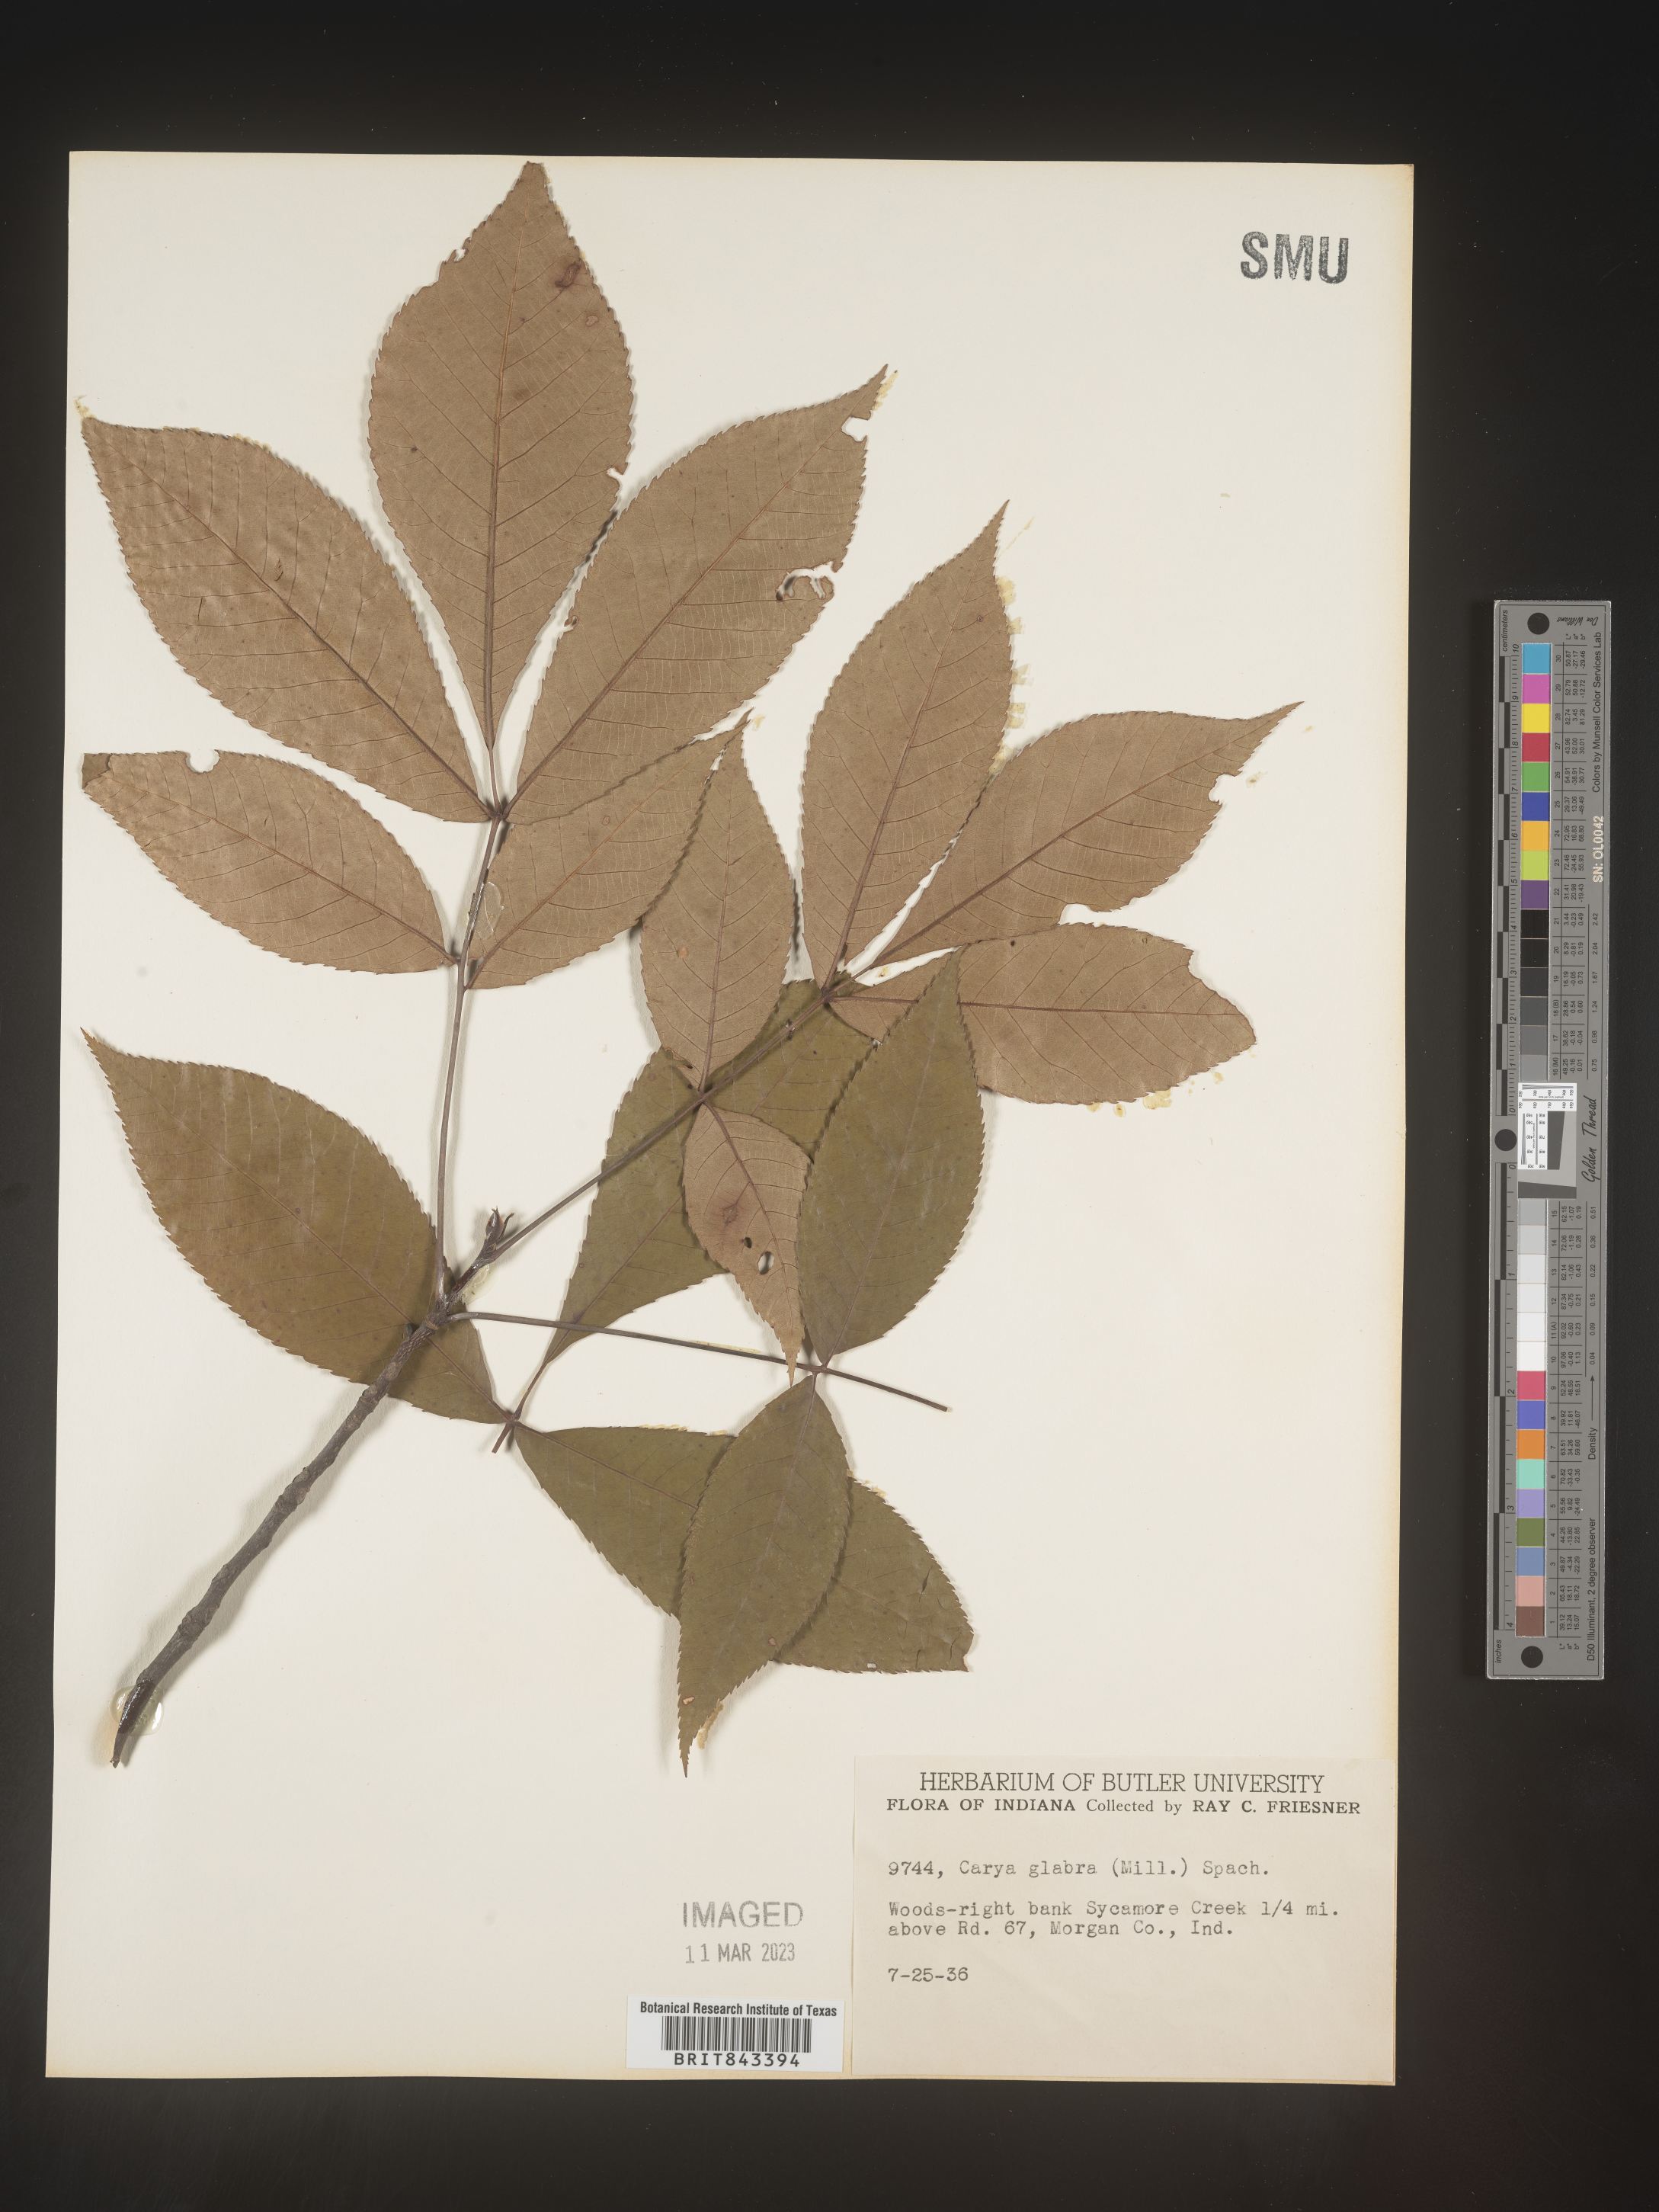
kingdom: Plantae
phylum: Tracheophyta
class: Magnoliopsida
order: Fagales
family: Juglandaceae
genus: Carya
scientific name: Carya glabra
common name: Pignut hickory
